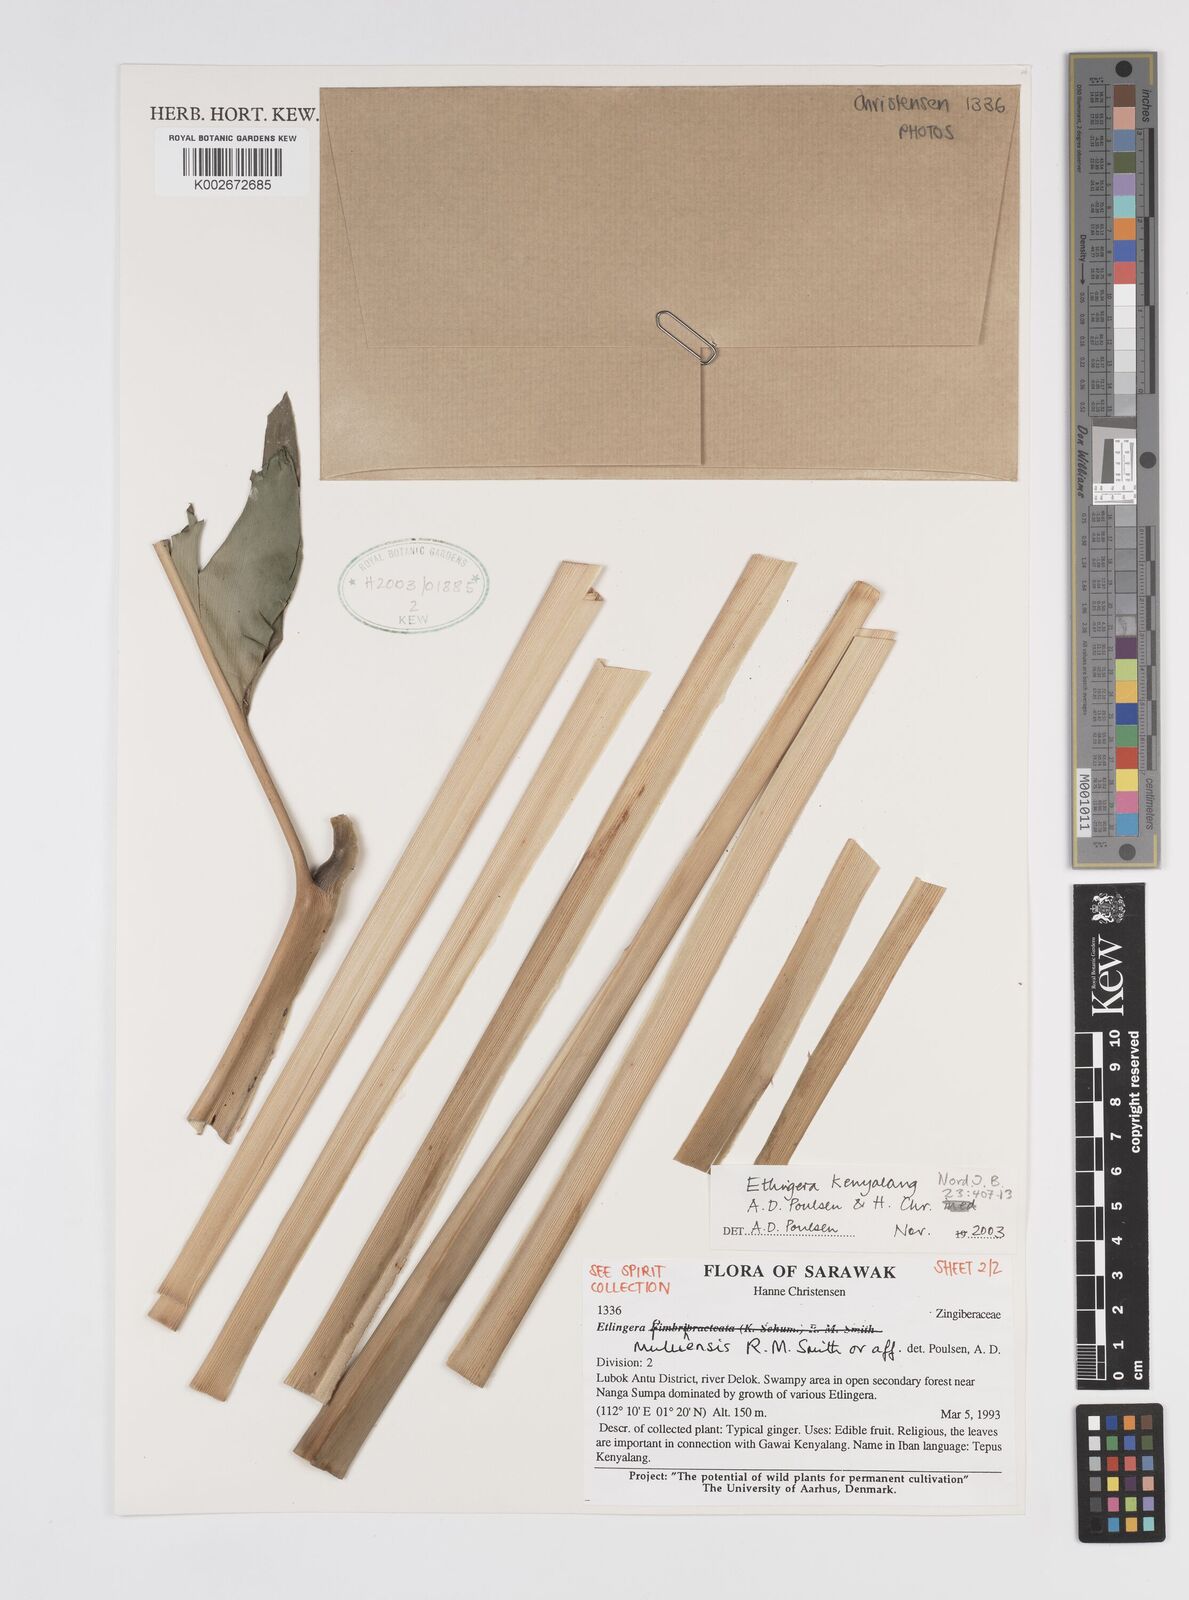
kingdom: Plantae
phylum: Tracheophyta
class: Liliopsida
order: Zingiberales
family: Zingiberaceae
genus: Etlingera
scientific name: Etlingera kenyalang
